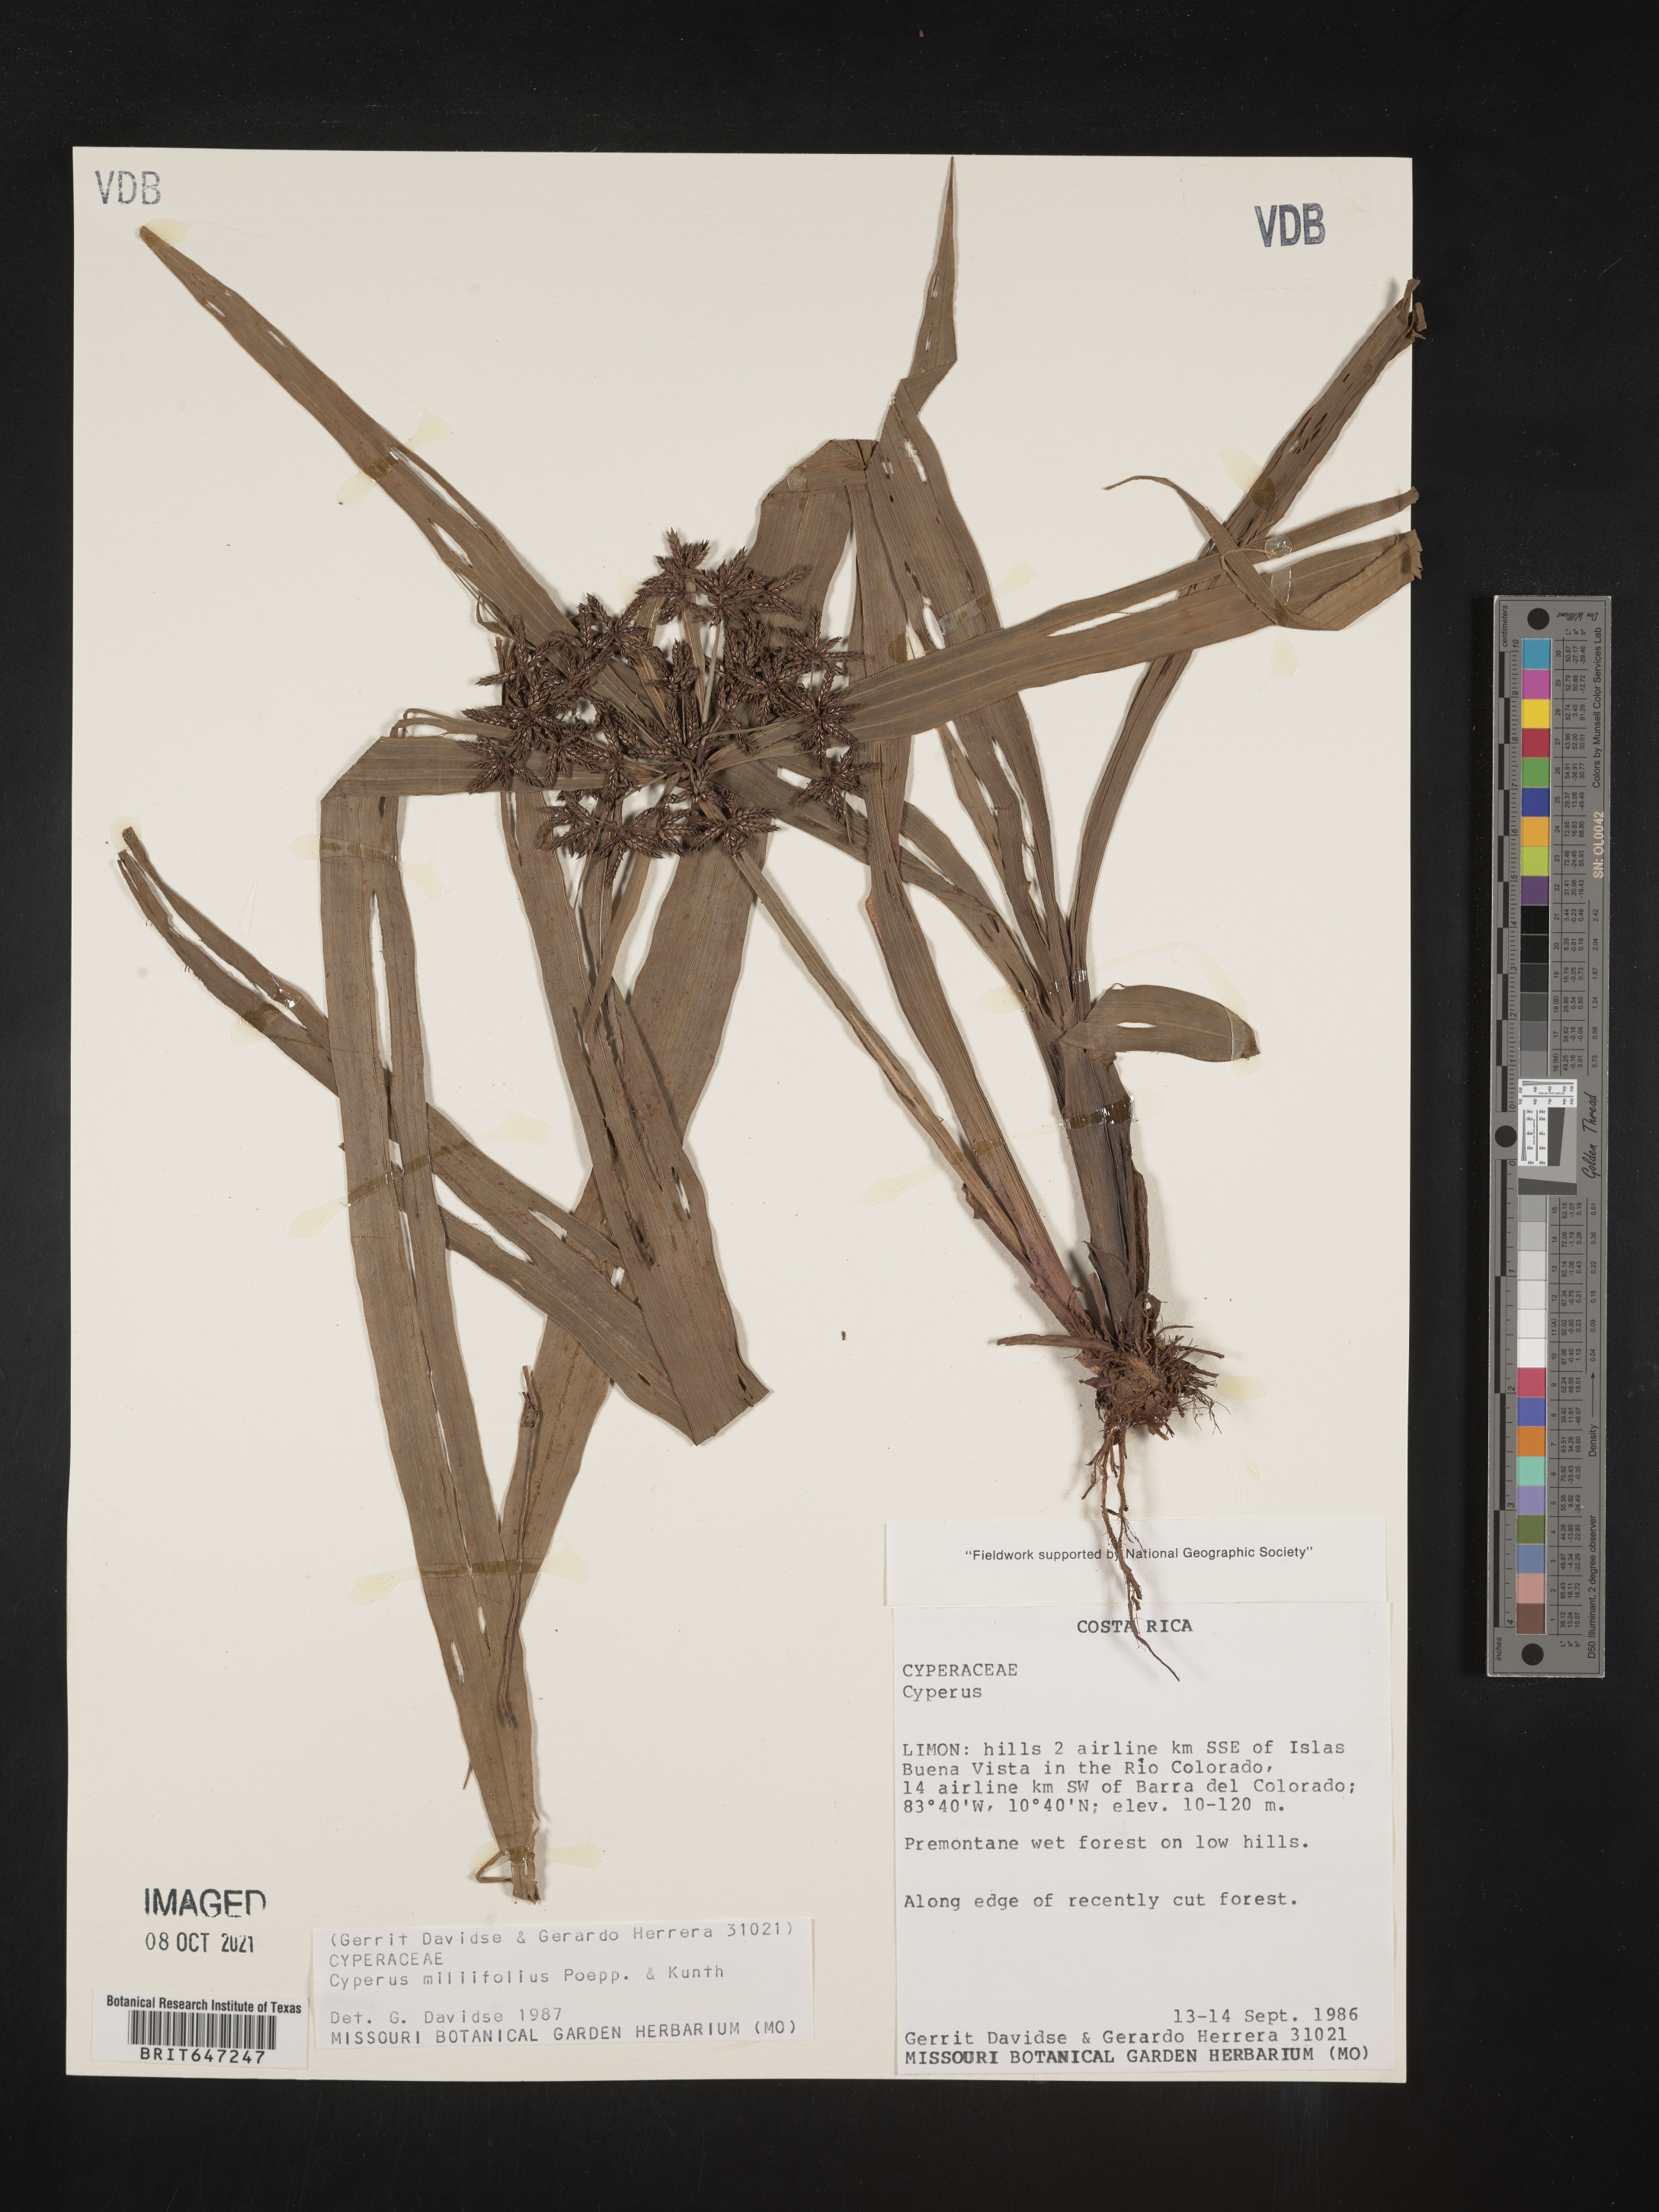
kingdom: Plantae
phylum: Tracheophyta
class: Liliopsida
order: Poales
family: Cyperaceae
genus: Cyperus
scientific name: Cyperus miliifolius
